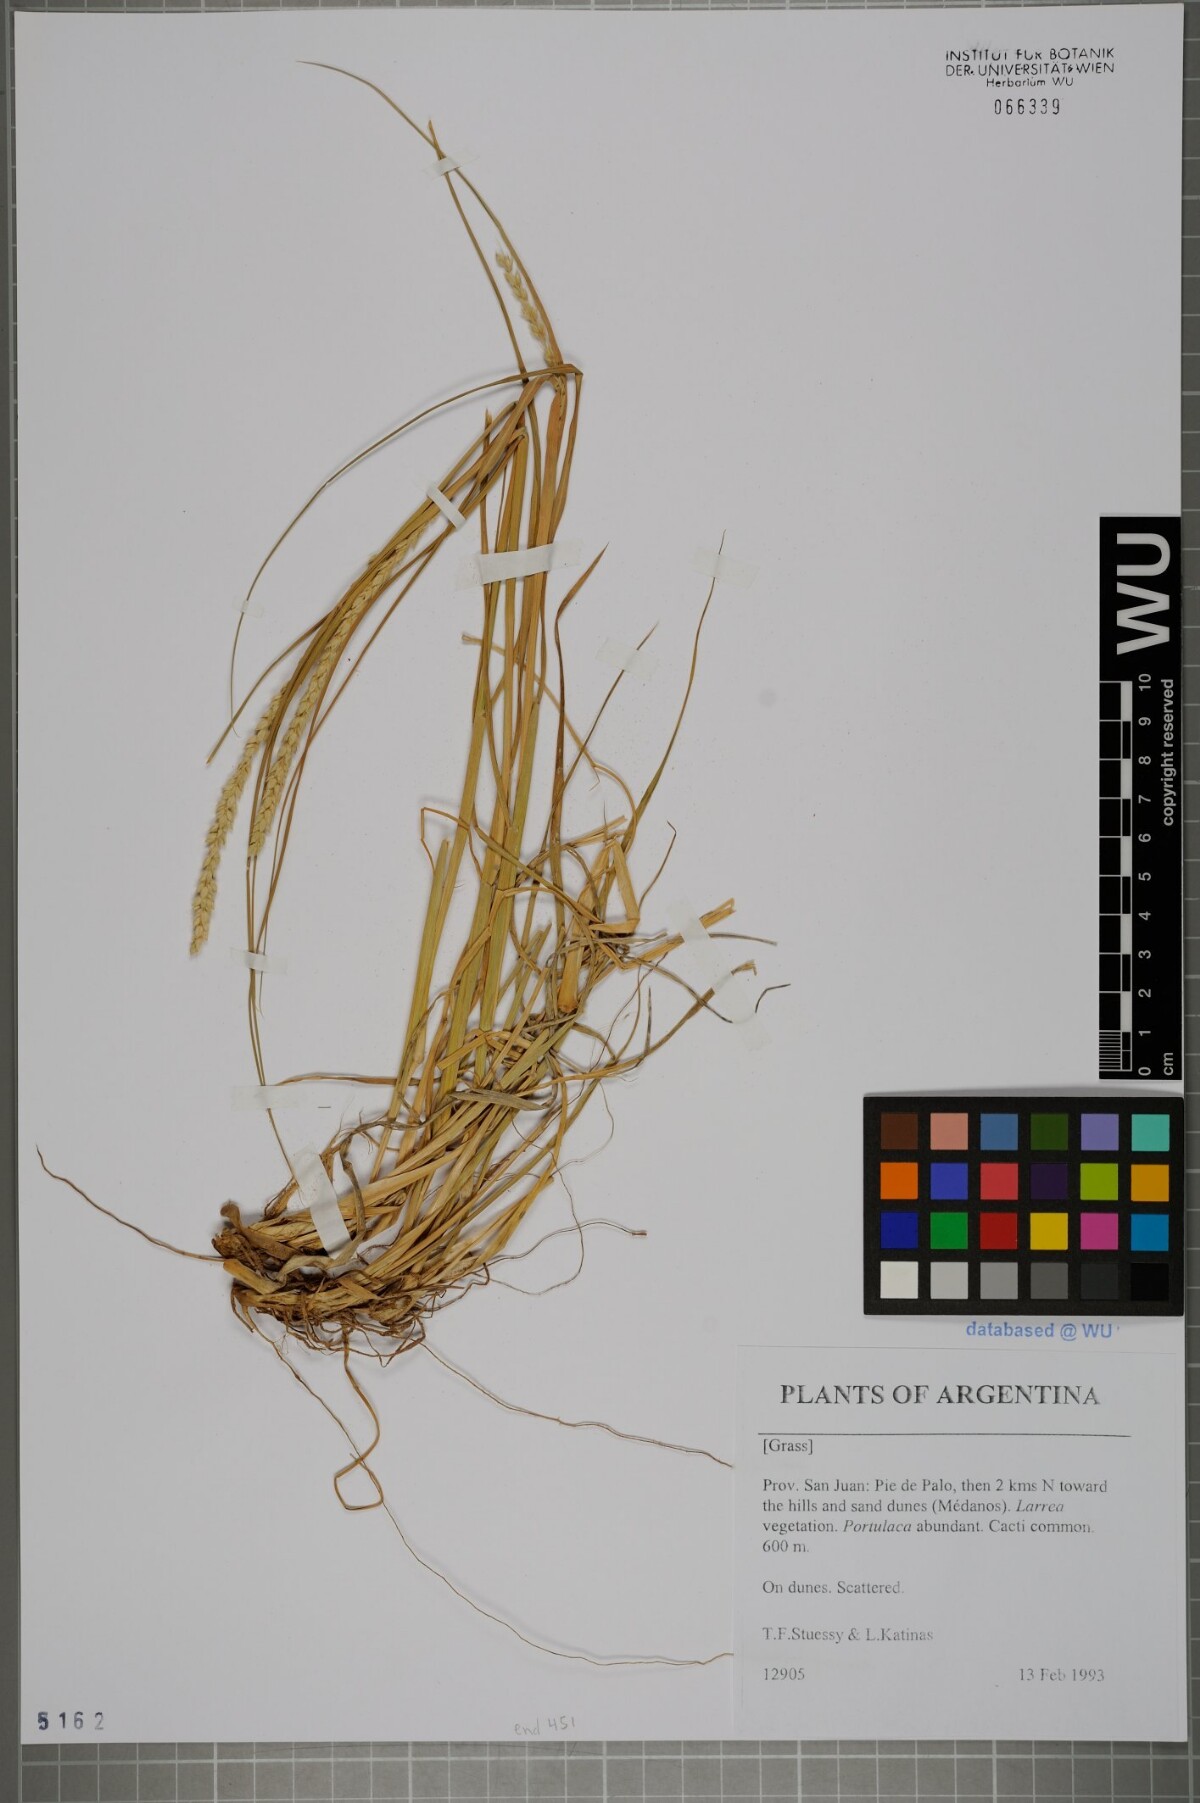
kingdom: Plantae
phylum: Tracheophyta
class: Liliopsida
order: Poales
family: Poaceae
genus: Setaria
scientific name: Setaria
